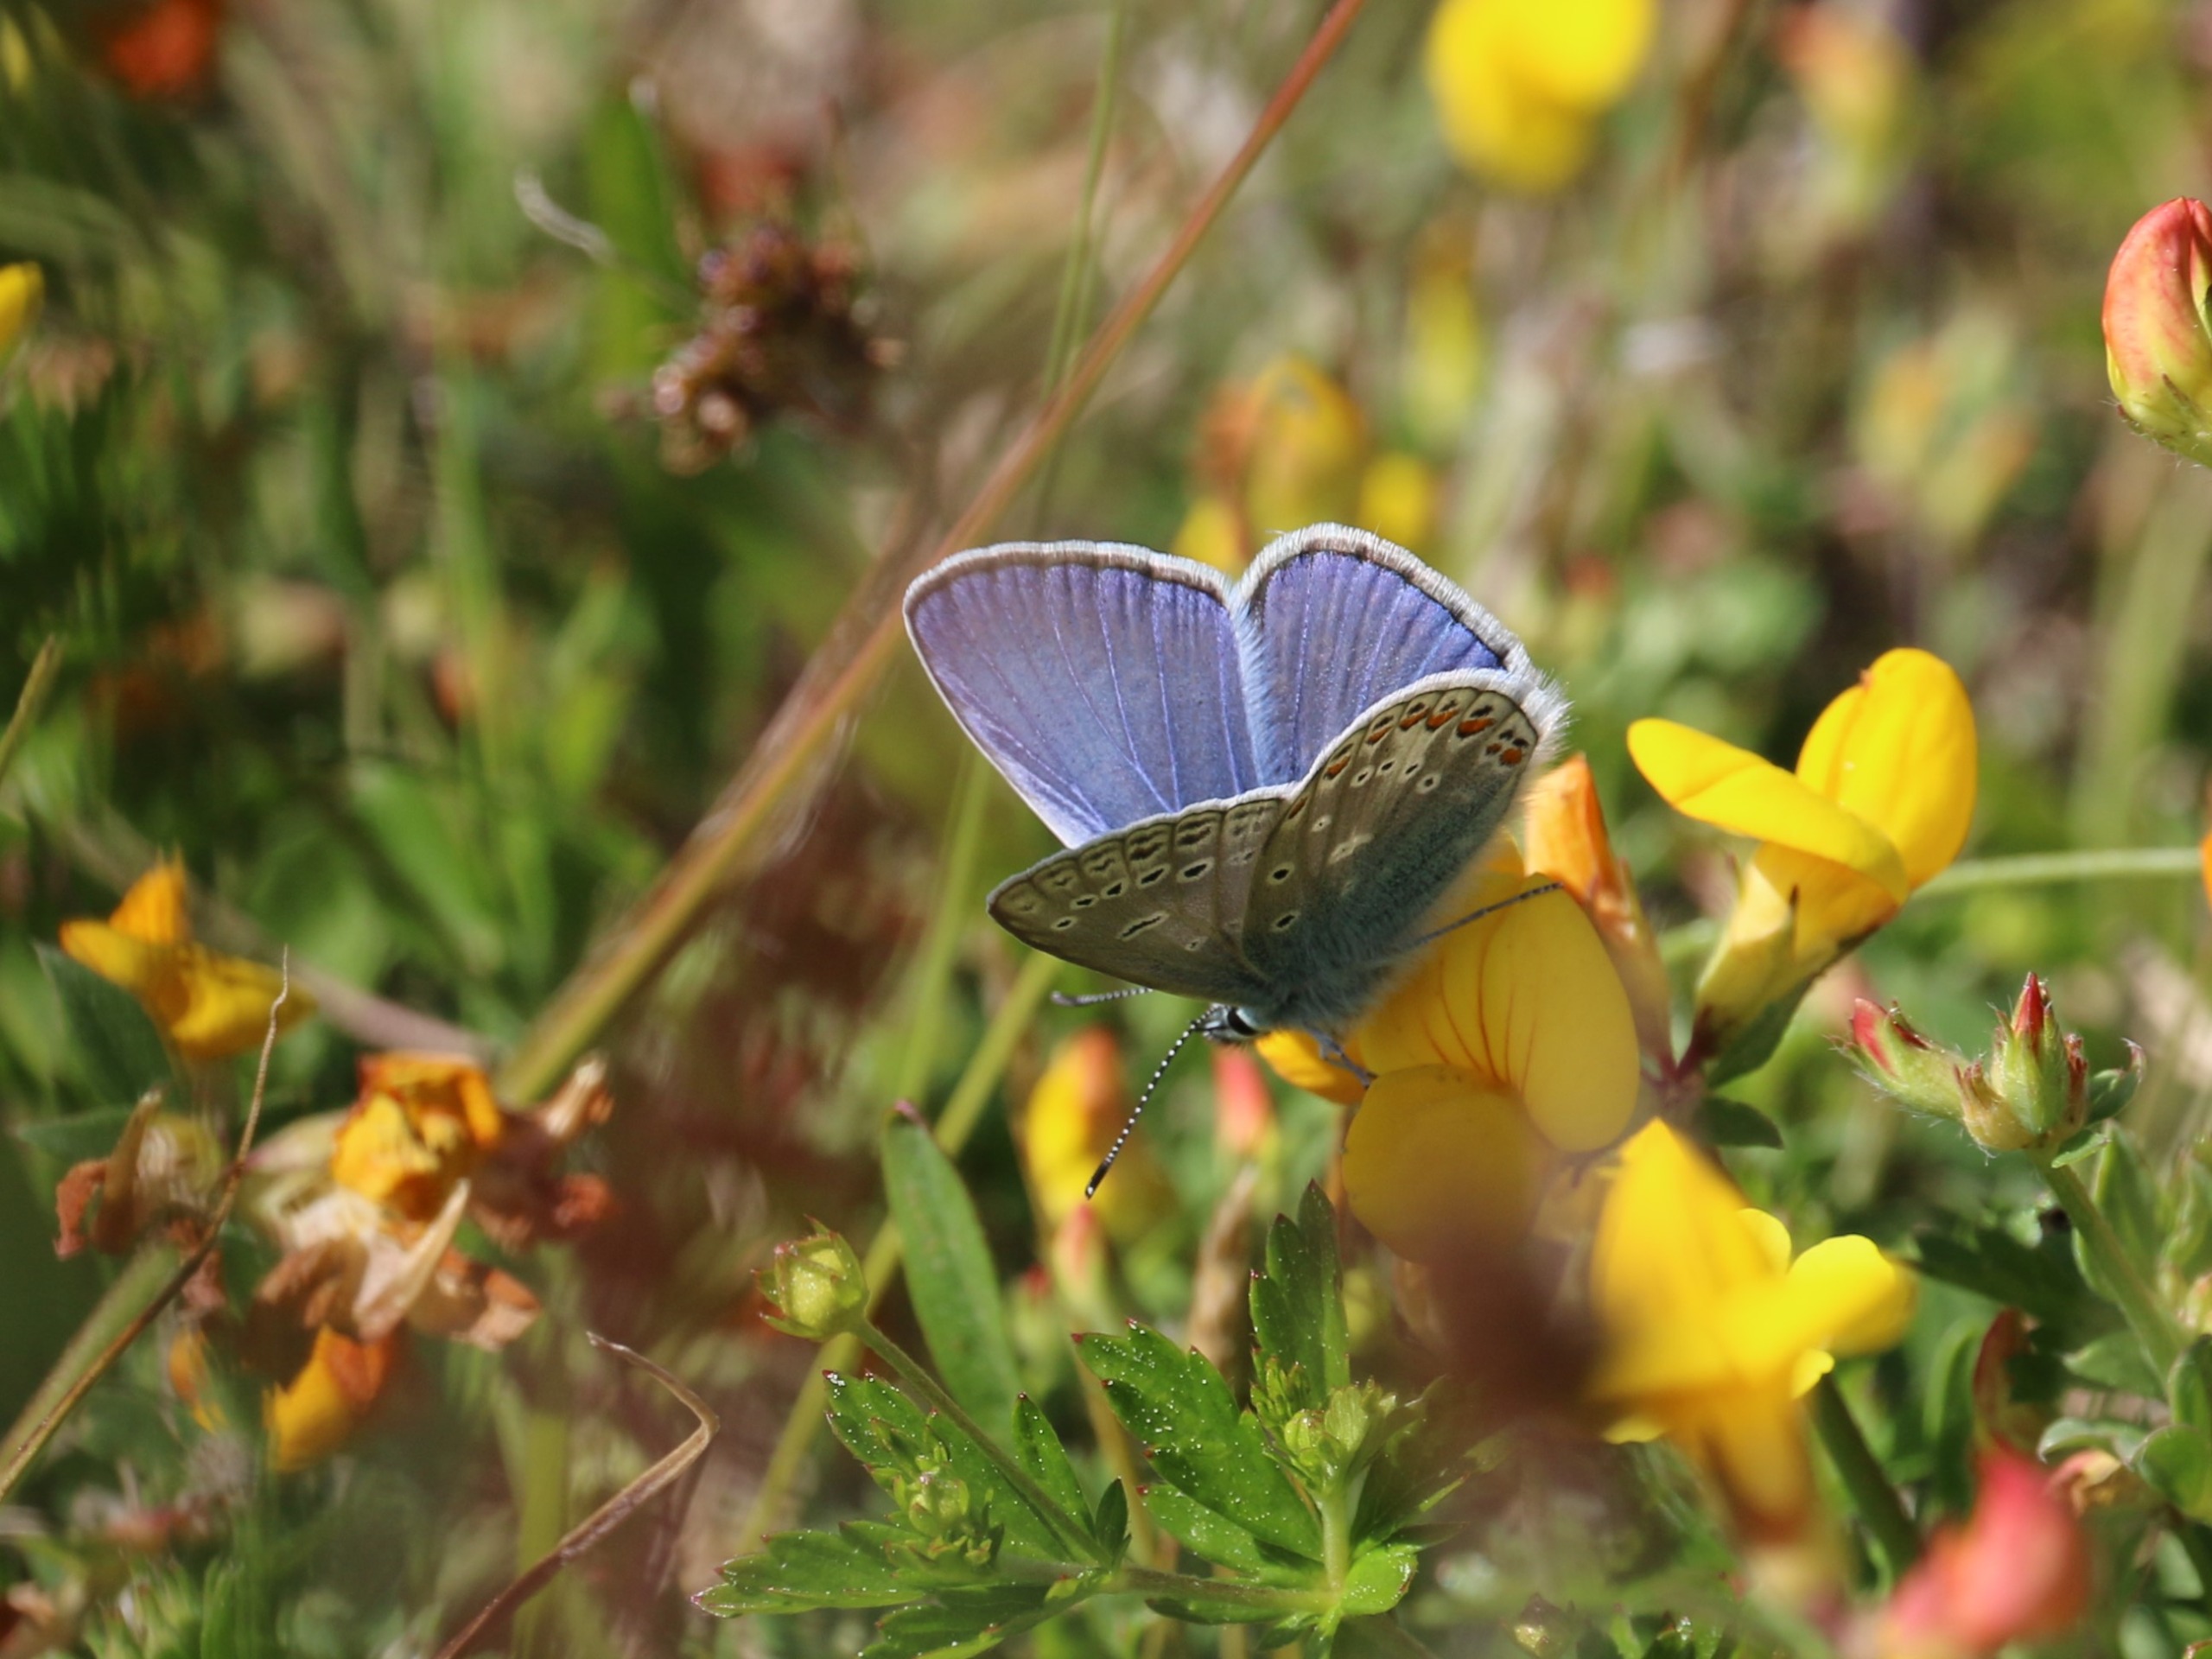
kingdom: Animalia
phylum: Arthropoda
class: Insecta
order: Lepidoptera
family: Lycaenidae
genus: Polyommatus
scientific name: Polyommatus icarus
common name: Almindelig blåfugl
